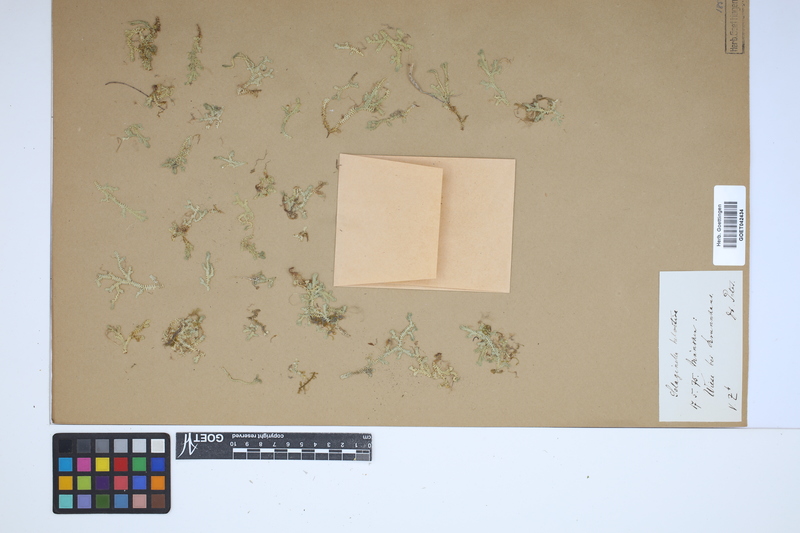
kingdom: Plantae
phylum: Tracheophyta
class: Lycopodiopsida
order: Selaginellales
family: Selaginellaceae
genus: Selaginella
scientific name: Selaginella helvetica
